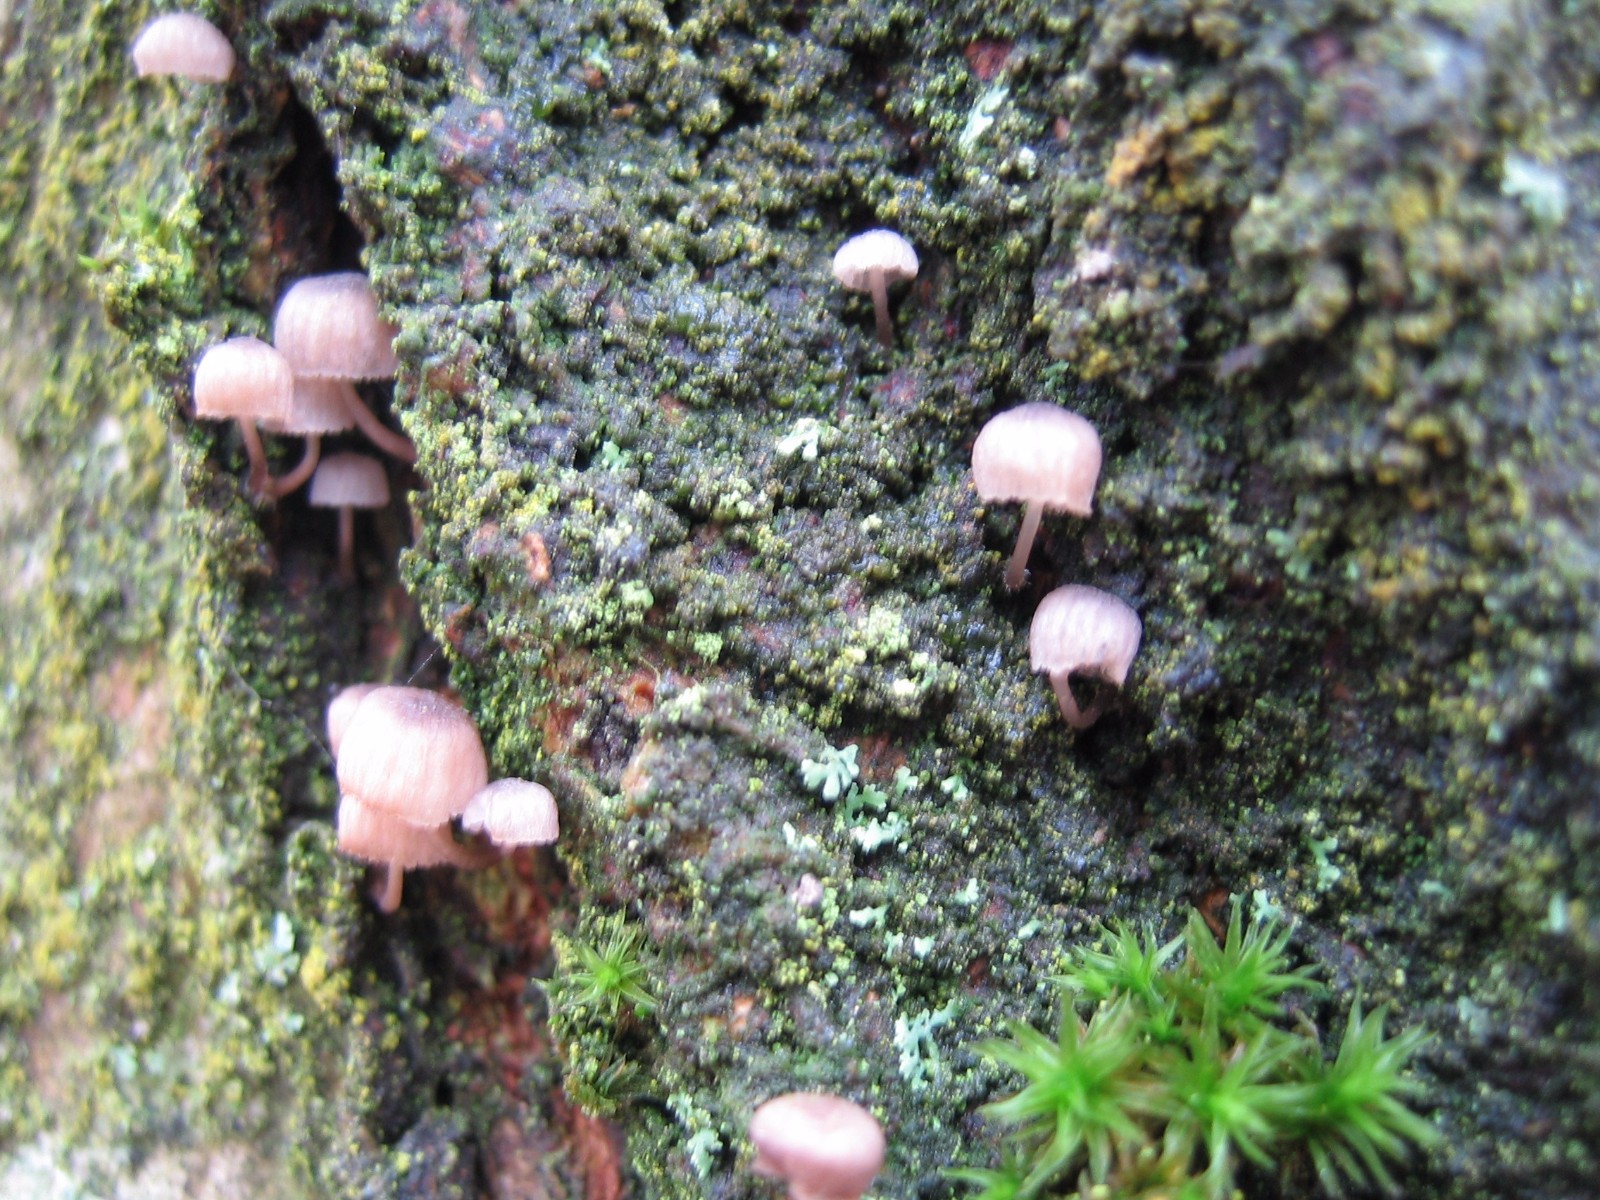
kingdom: Fungi
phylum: Basidiomycota
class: Agaricomycetes
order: Agaricales
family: Mycenaceae
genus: Mycena
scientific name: Mycena meliigena
